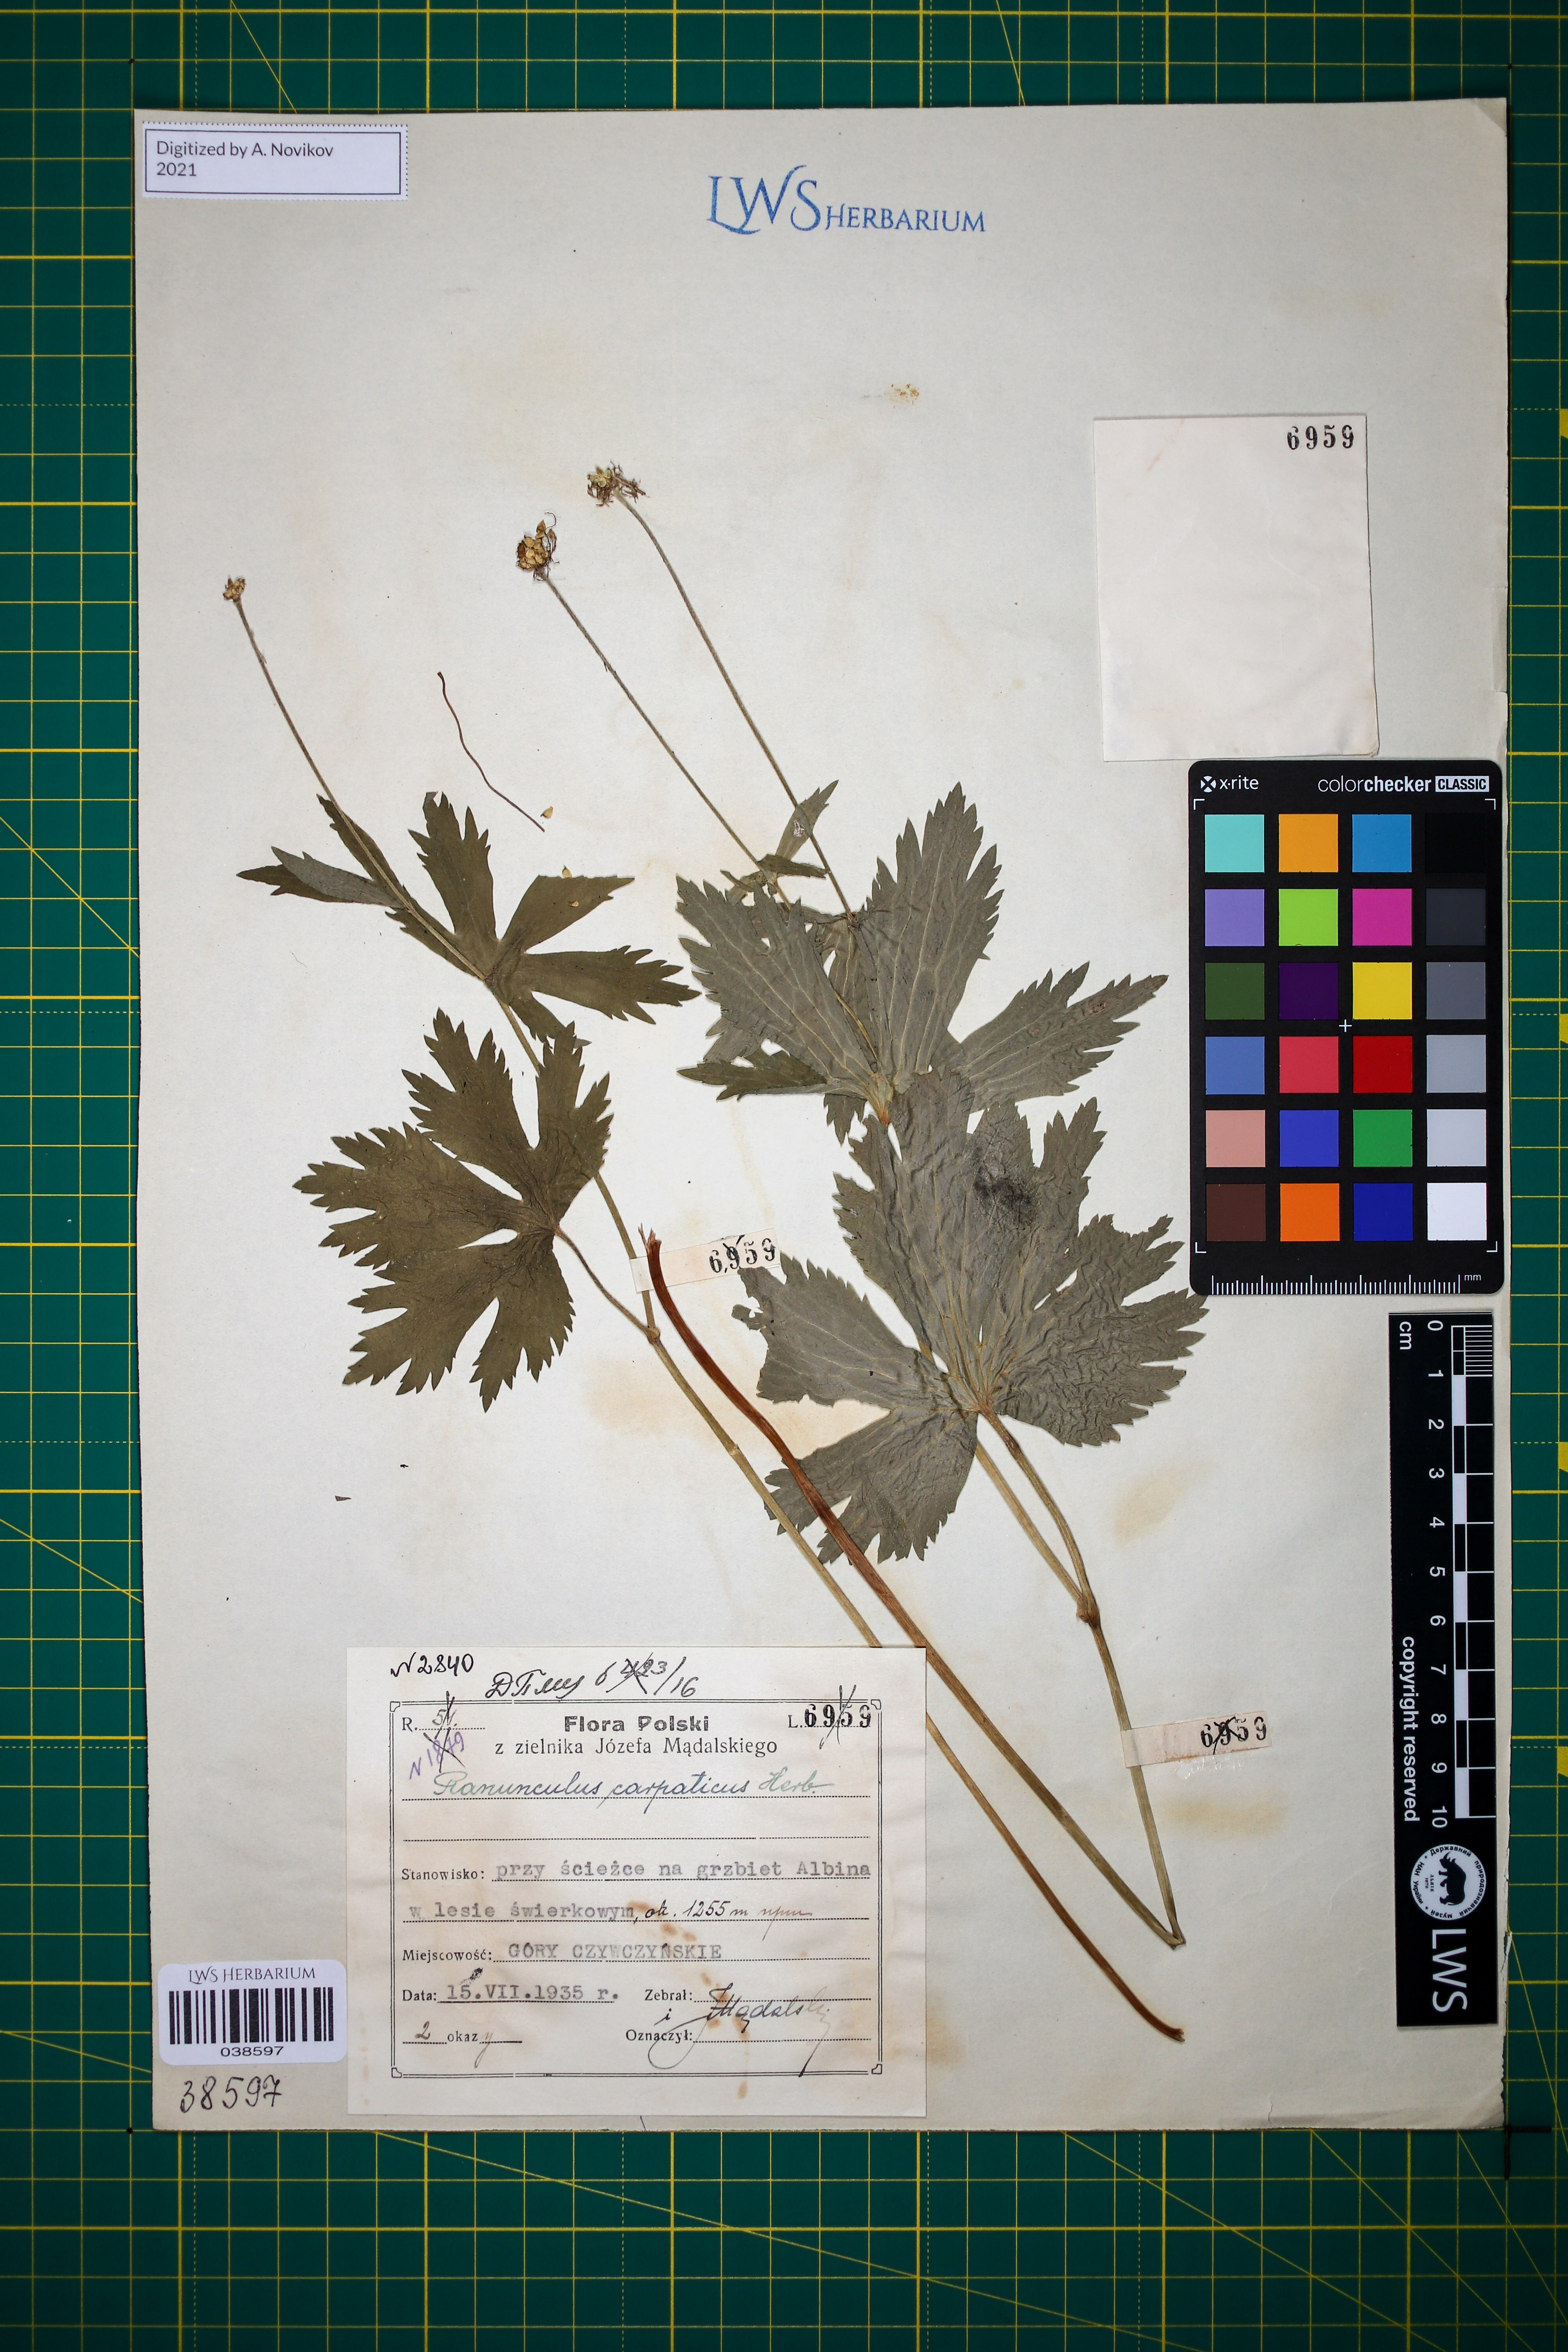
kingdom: Plantae
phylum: Tracheophyta
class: Magnoliopsida
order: Ranunculales
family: Ranunculaceae
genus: Ranunculus
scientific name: Ranunculus carpaticus
